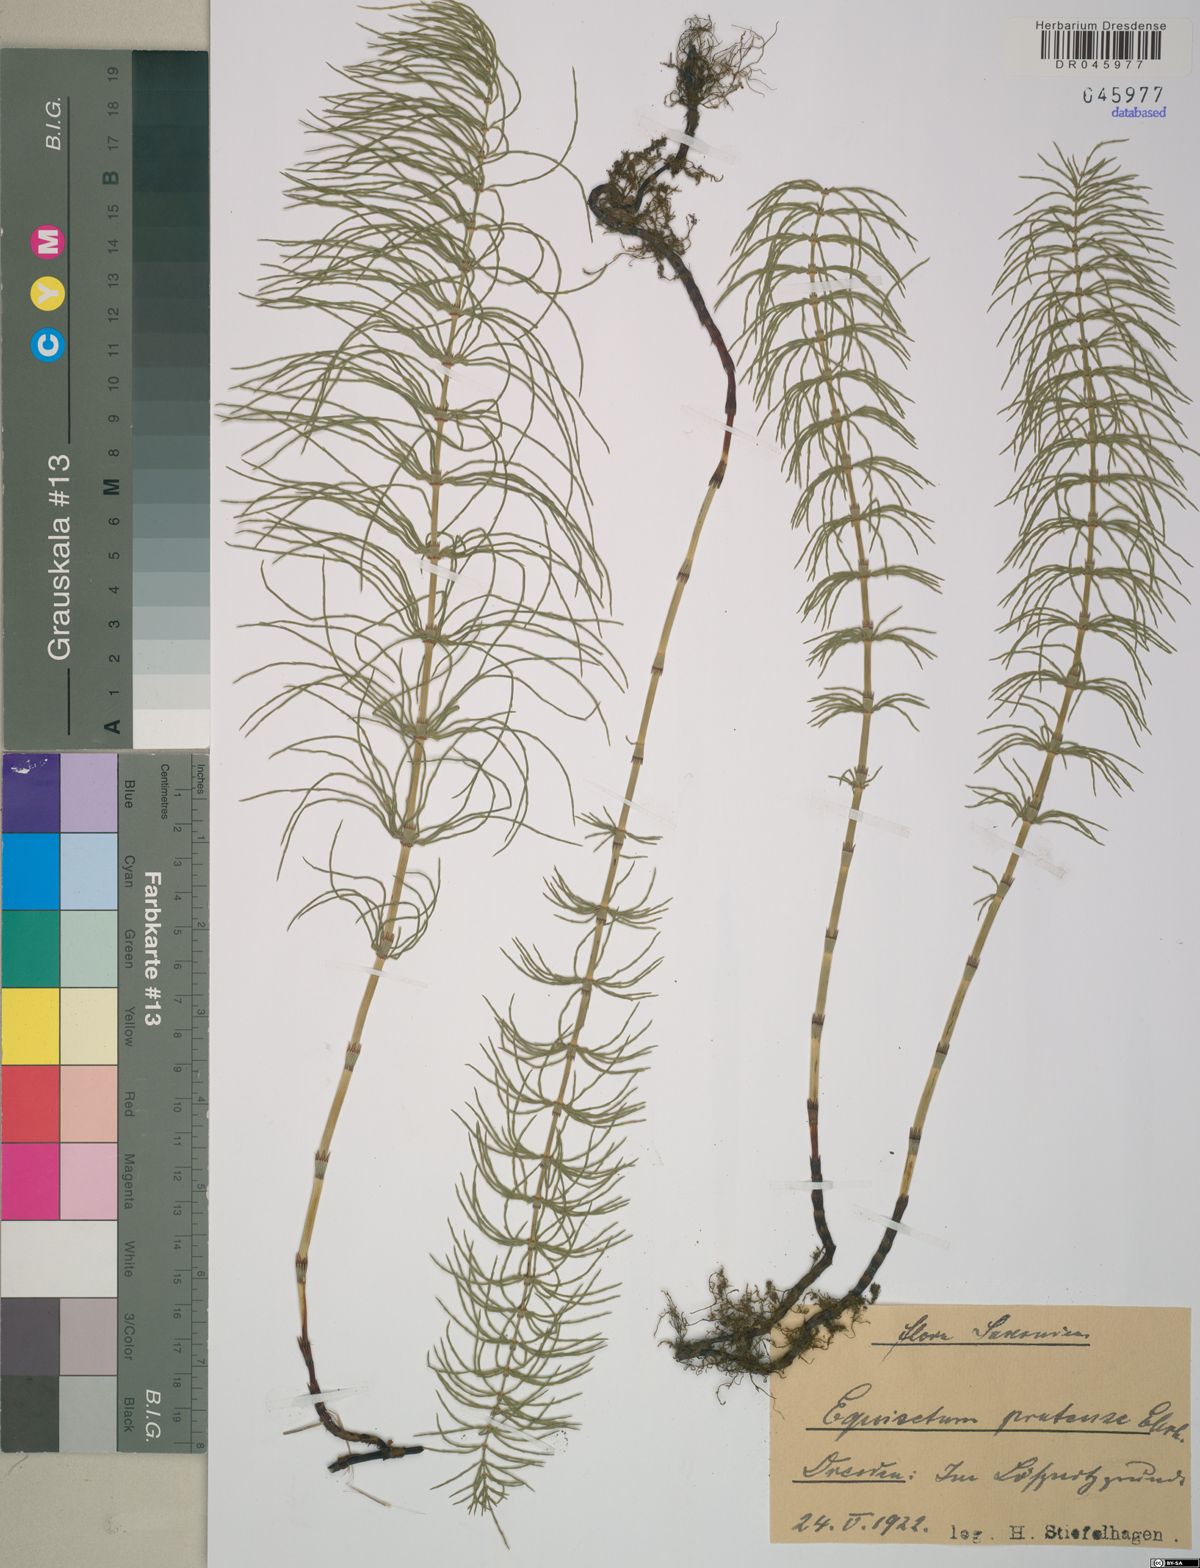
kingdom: Plantae
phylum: Tracheophyta
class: Polypodiopsida
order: Equisetales
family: Equisetaceae
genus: Equisetum
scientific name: Equisetum pratense
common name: Meadow horsetail
